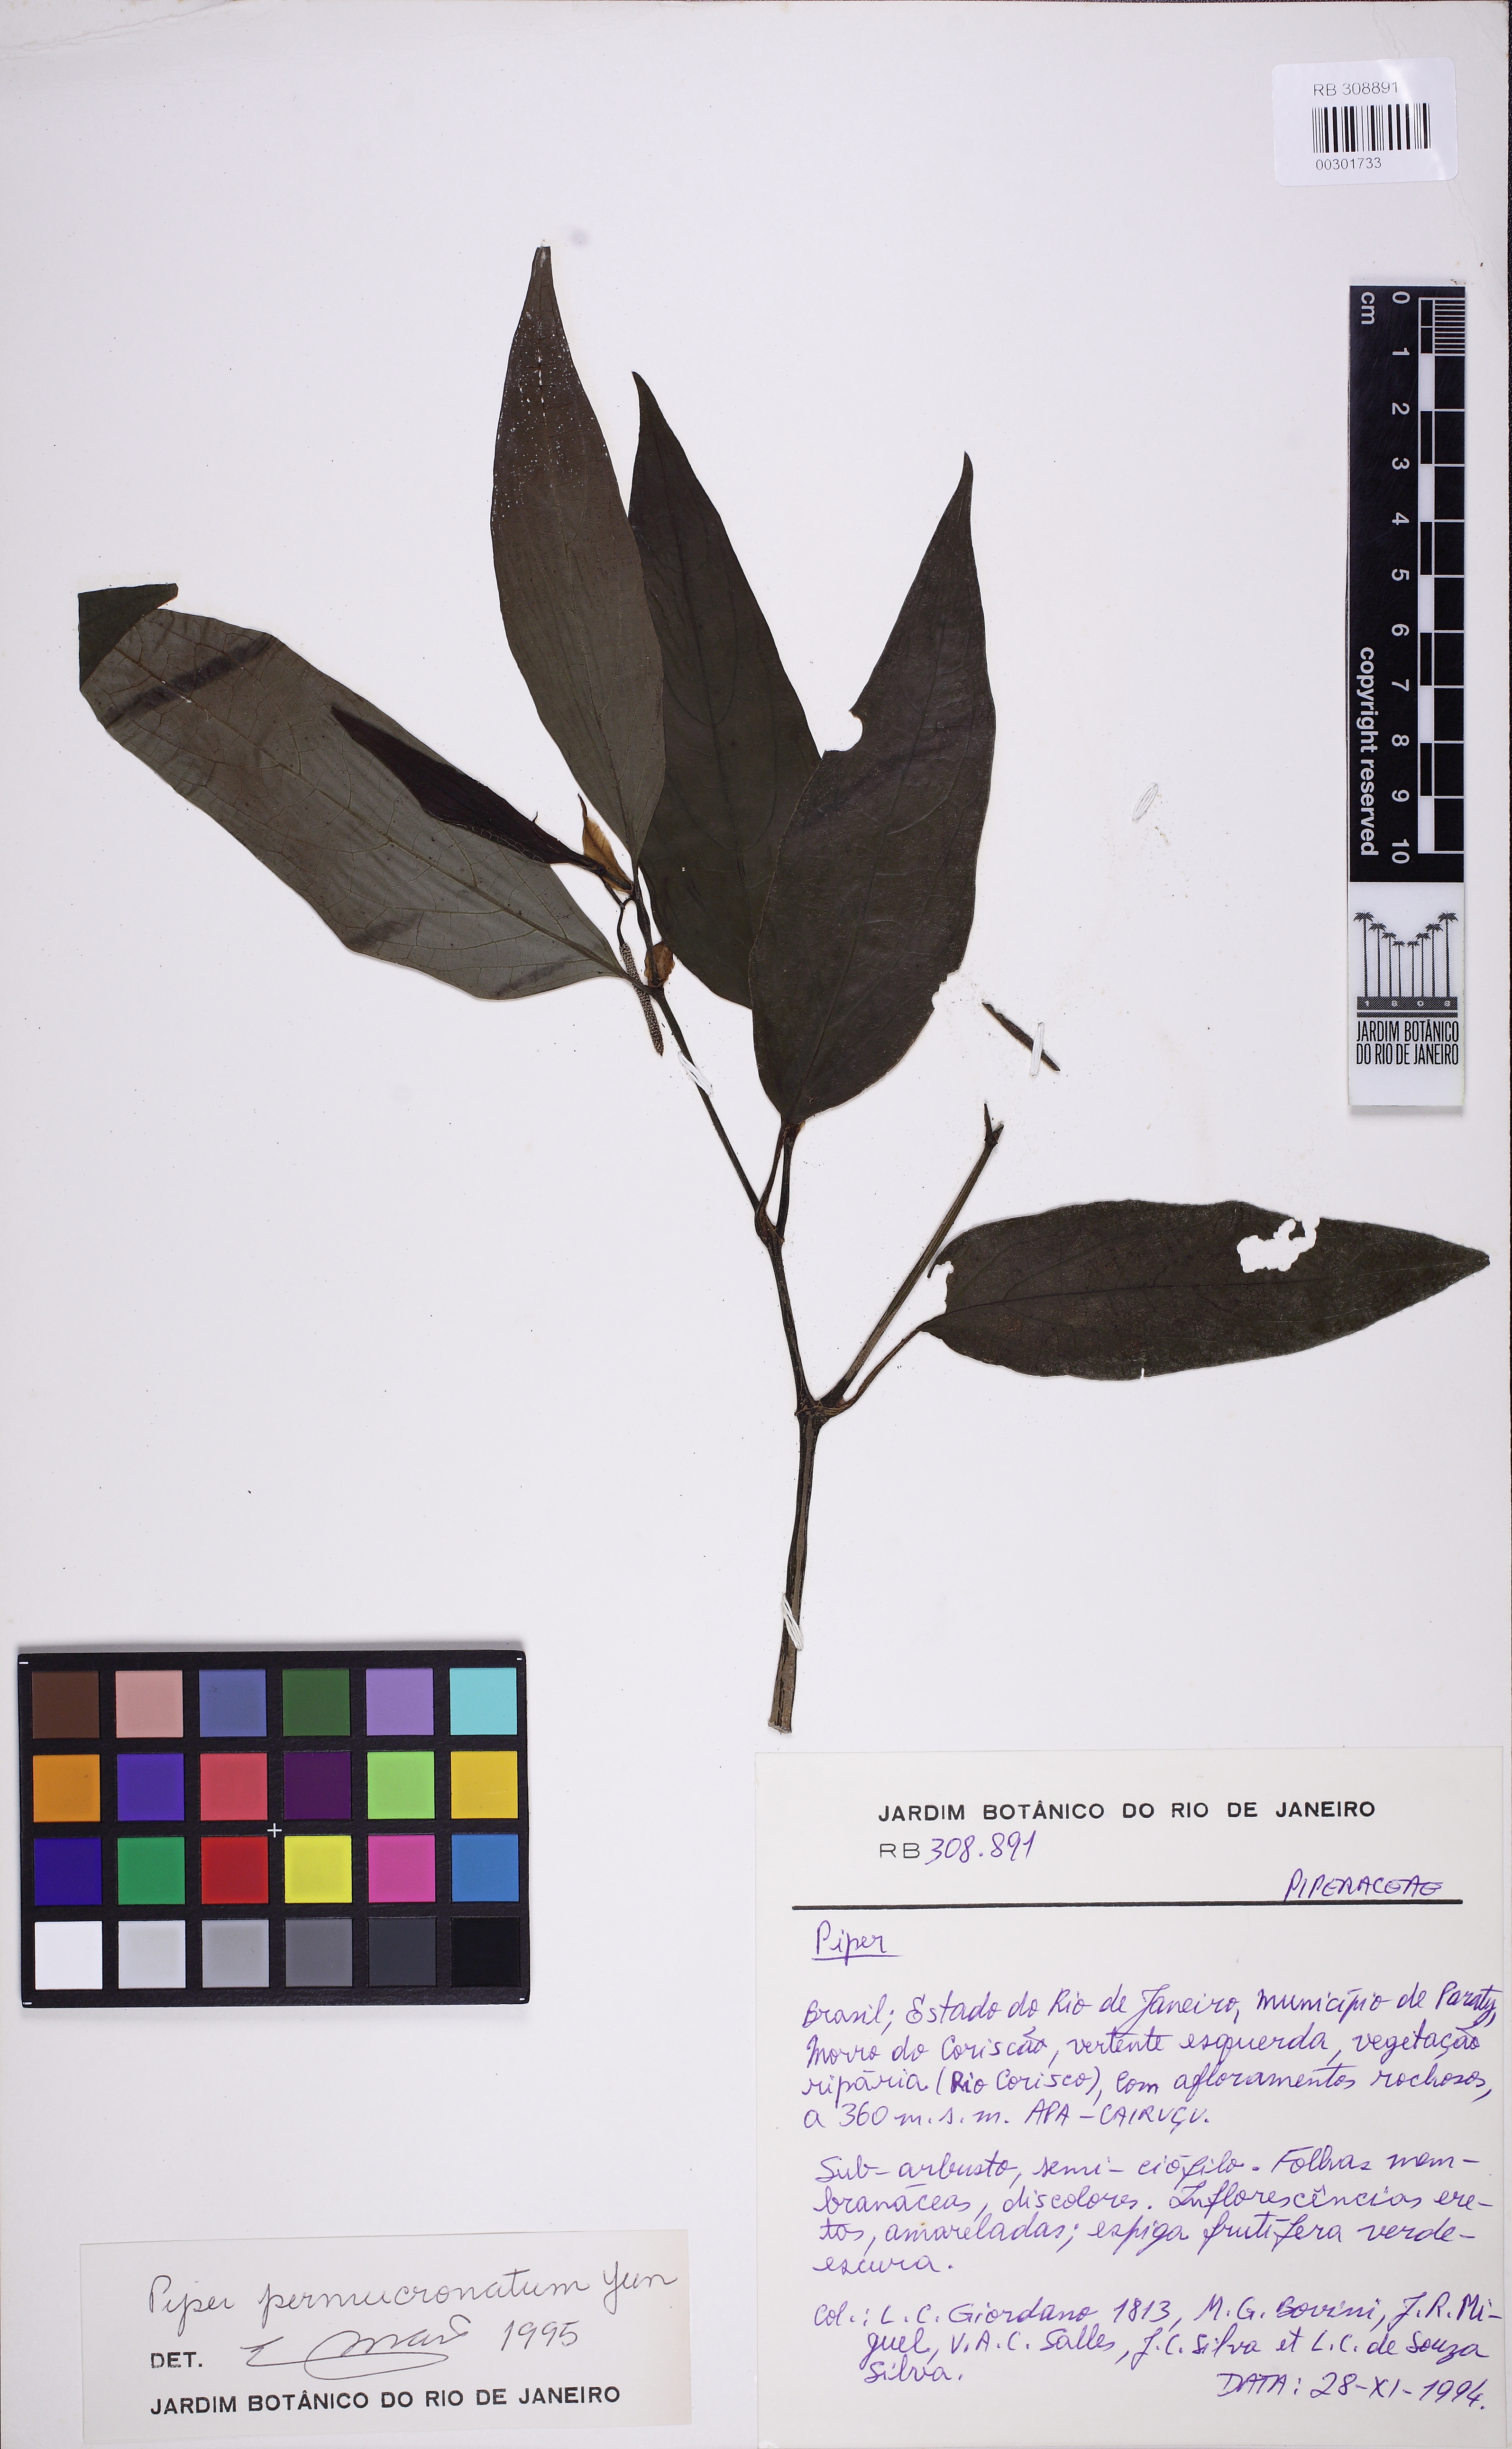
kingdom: Plantae
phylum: Tracheophyta
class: Magnoliopsida
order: Piperales
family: Piperaceae
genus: Piper
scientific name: Piper permucronatum
